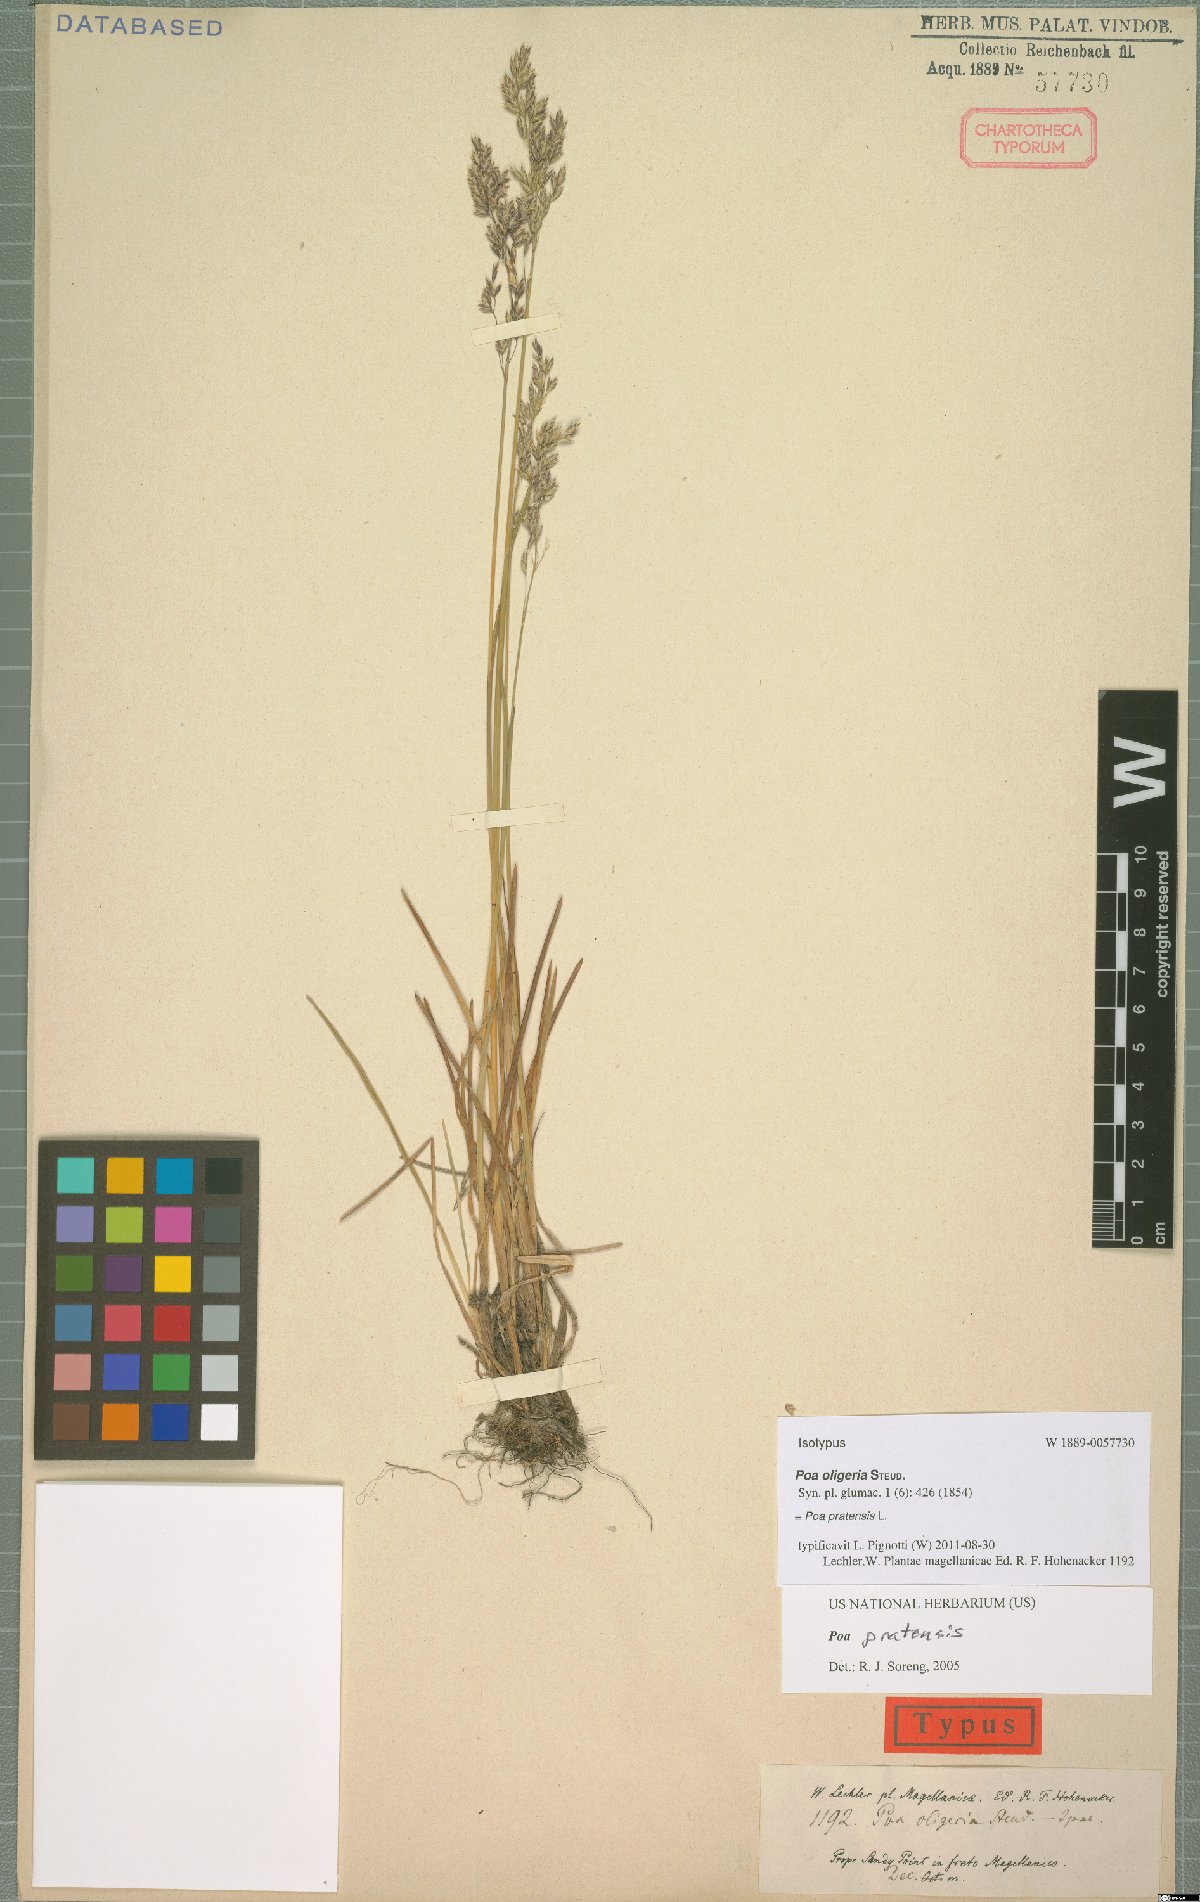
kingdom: Plantae
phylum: Tracheophyta
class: Liliopsida
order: Poales
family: Poaceae
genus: Poa
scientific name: Poa pratensis
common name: Kentucky bluegrass
